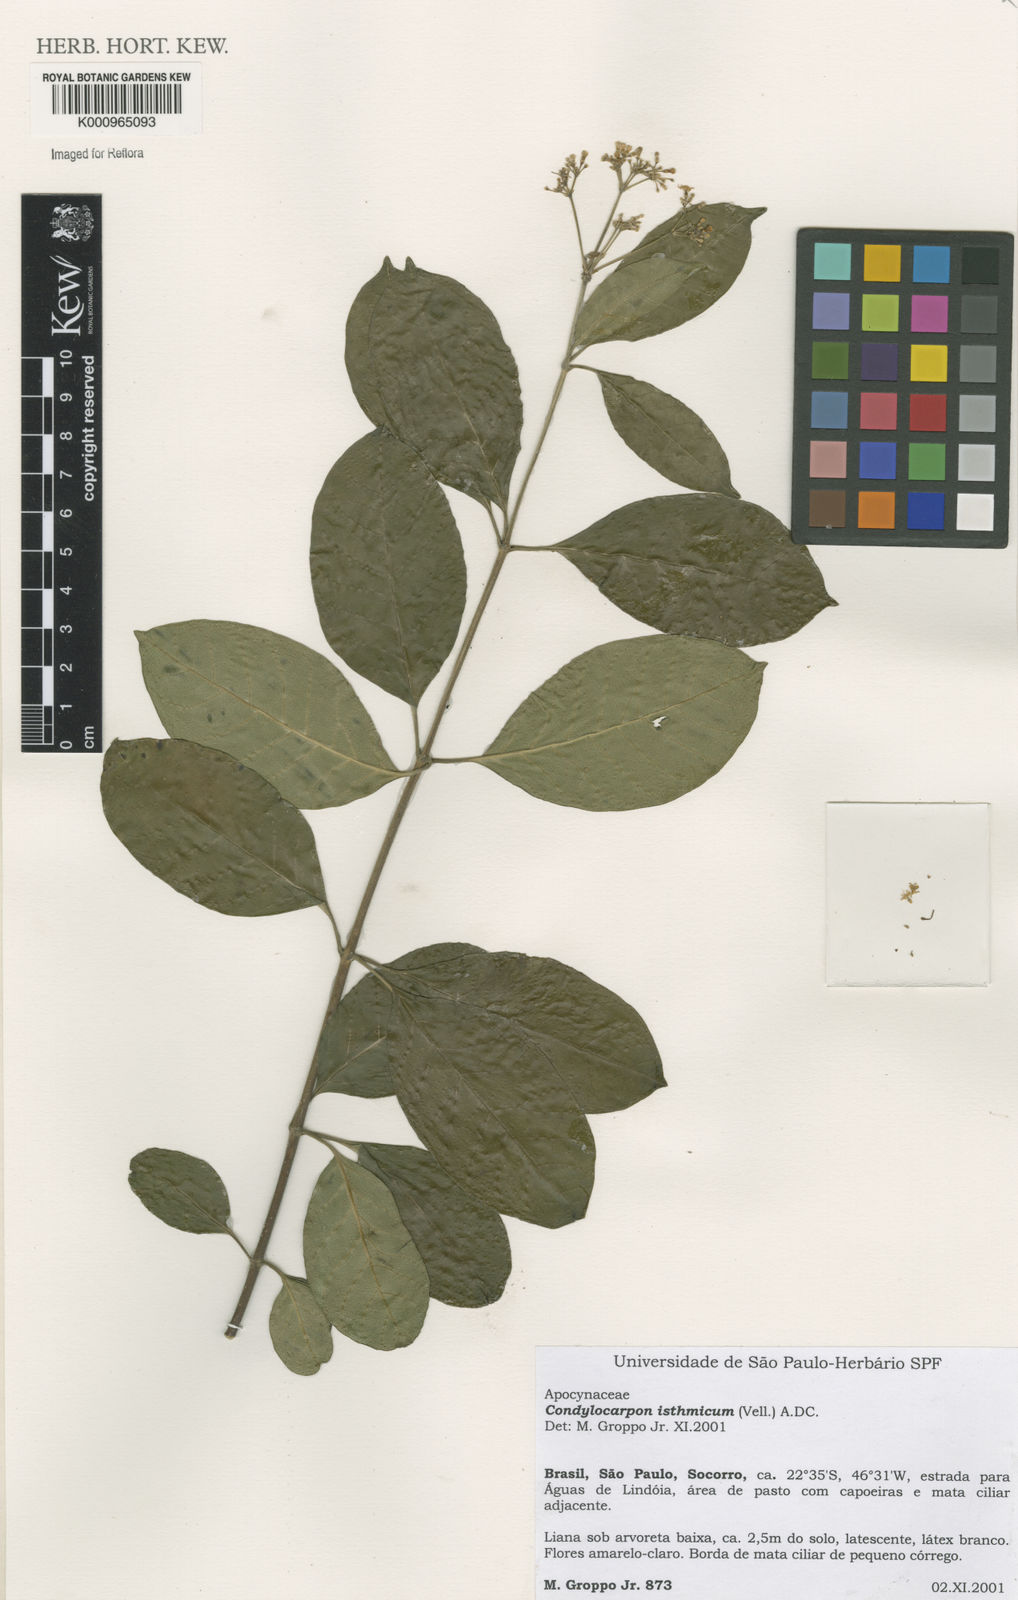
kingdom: Plantae
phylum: Tracheophyta
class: Magnoliopsida
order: Gentianales
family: Apocynaceae
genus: Condylocarpon
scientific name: Condylocarpon isthmicum
